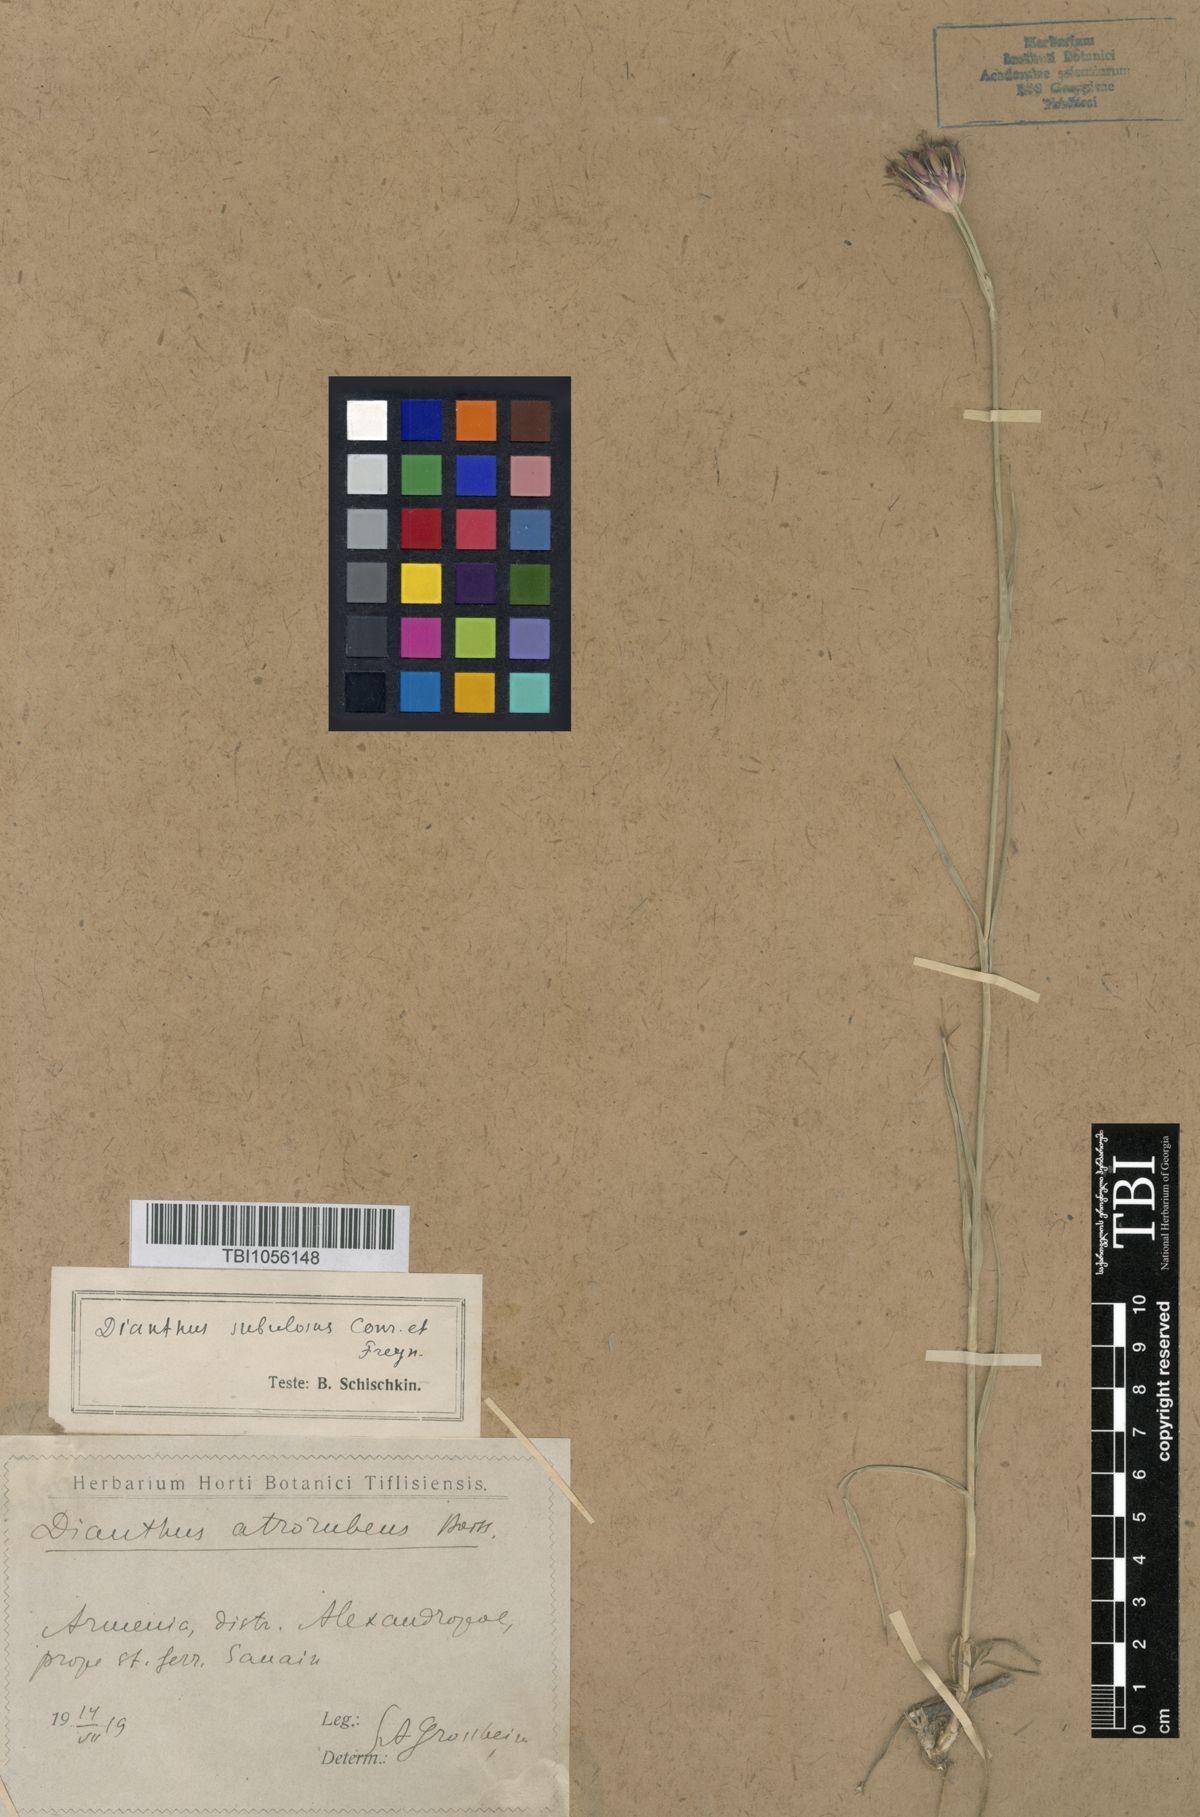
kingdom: Plantae
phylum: Tracheophyta
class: Magnoliopsida
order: Caryophyllales
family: Caryophyllaceae
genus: Dianthus
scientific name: Dianthus subulosus
